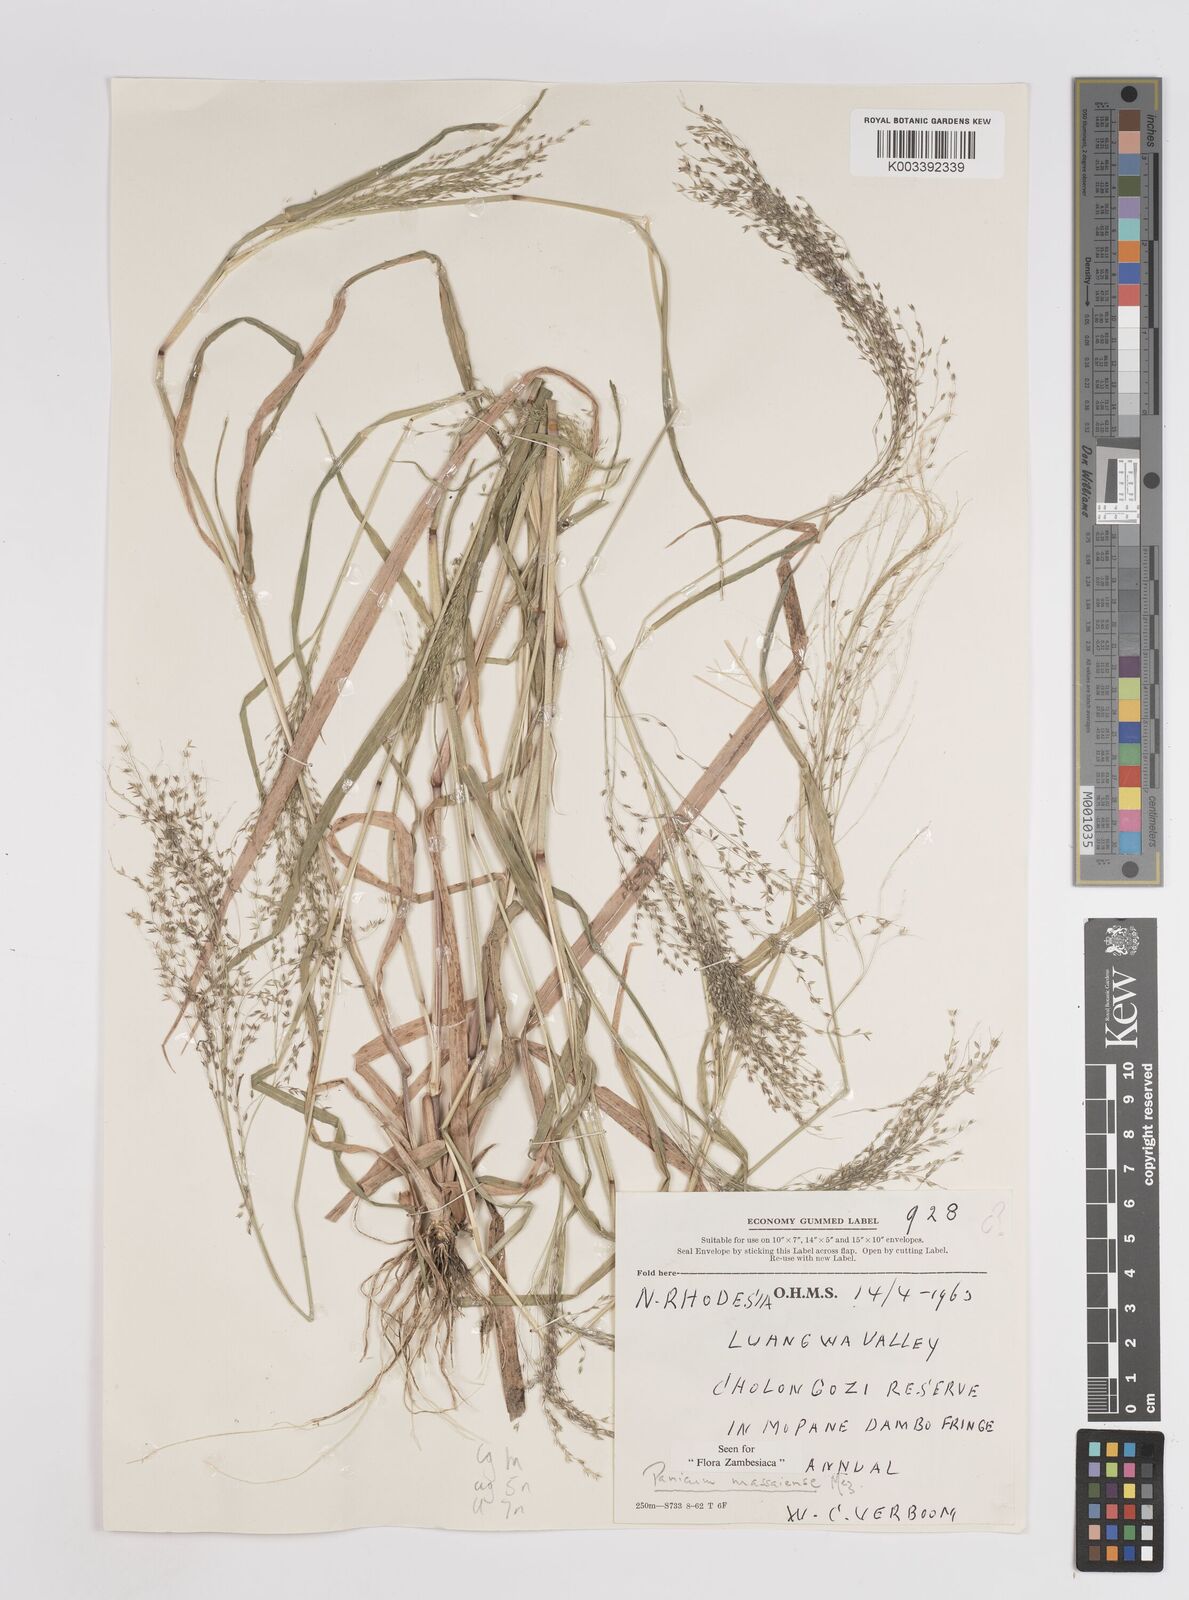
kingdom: Plantae
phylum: Tracheophyta
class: Liliopsida
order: Poales
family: Poaceae
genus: Panicum
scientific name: Panicum massaiense
